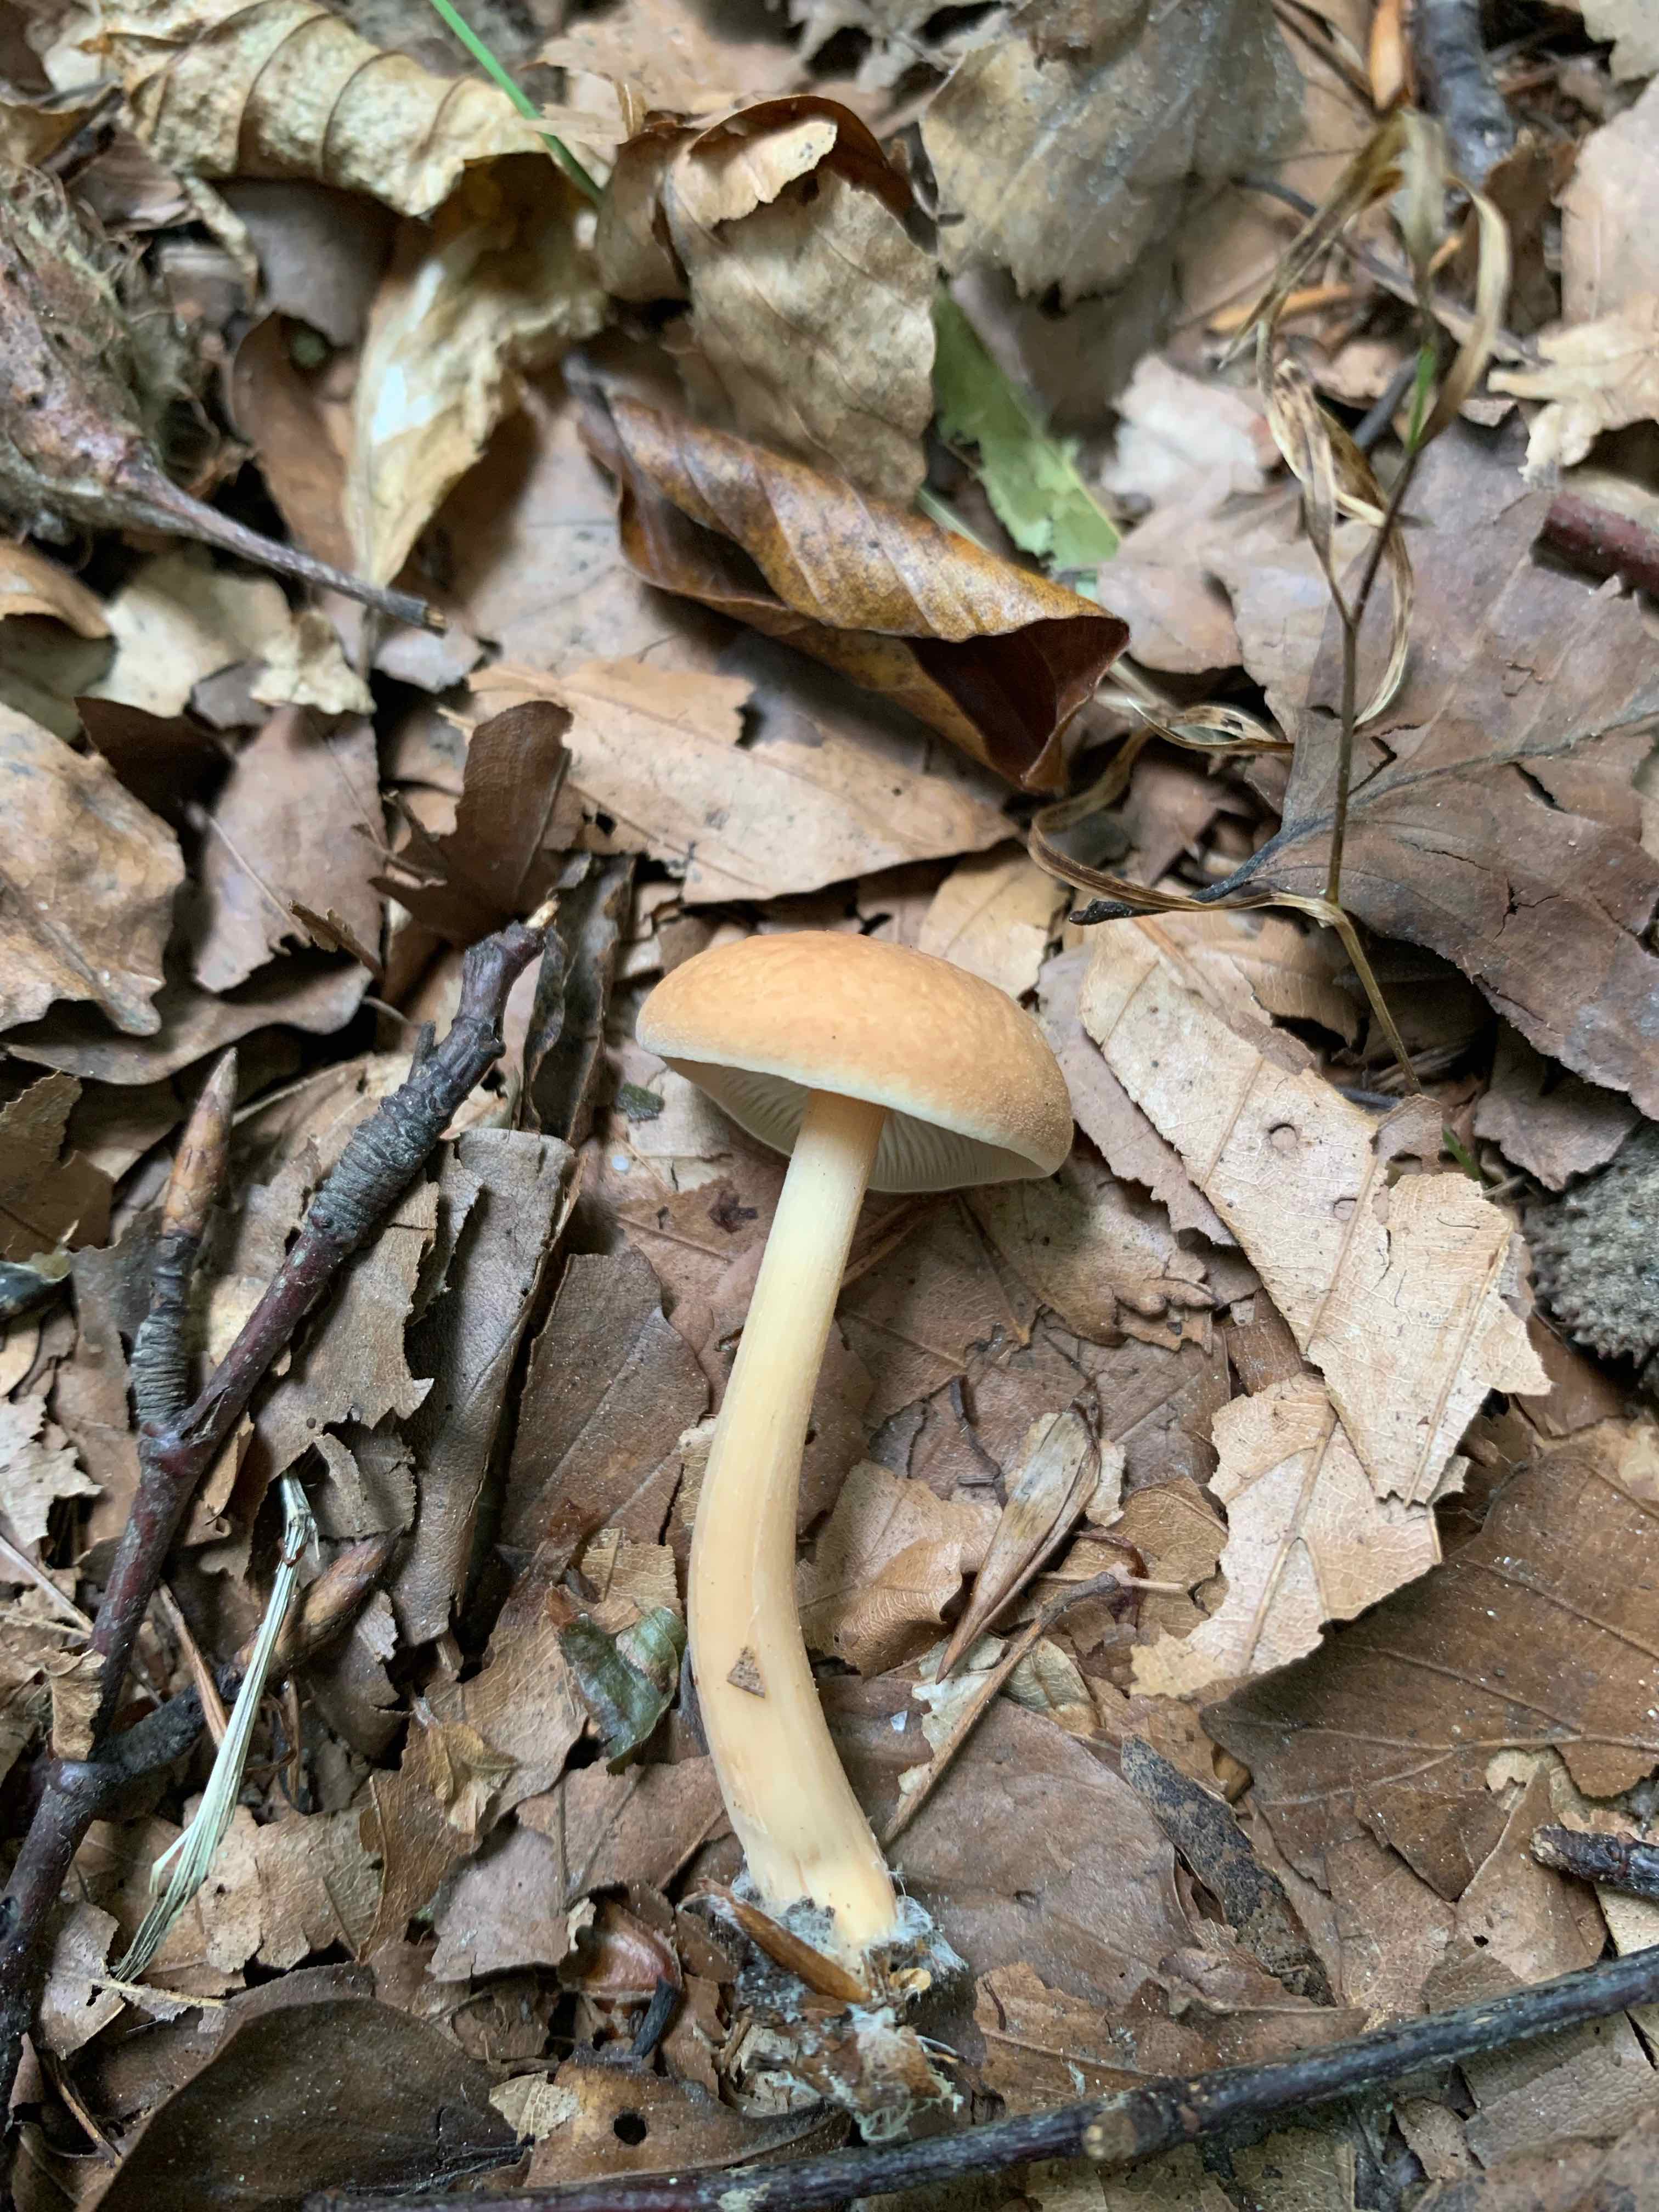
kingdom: Fungi
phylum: Basidiomycota
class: Agaricomycetes
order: Agaricales
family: Omphalotaceae
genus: Gymnopus
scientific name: Gymnopus dryophilus
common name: løv-fladhat
